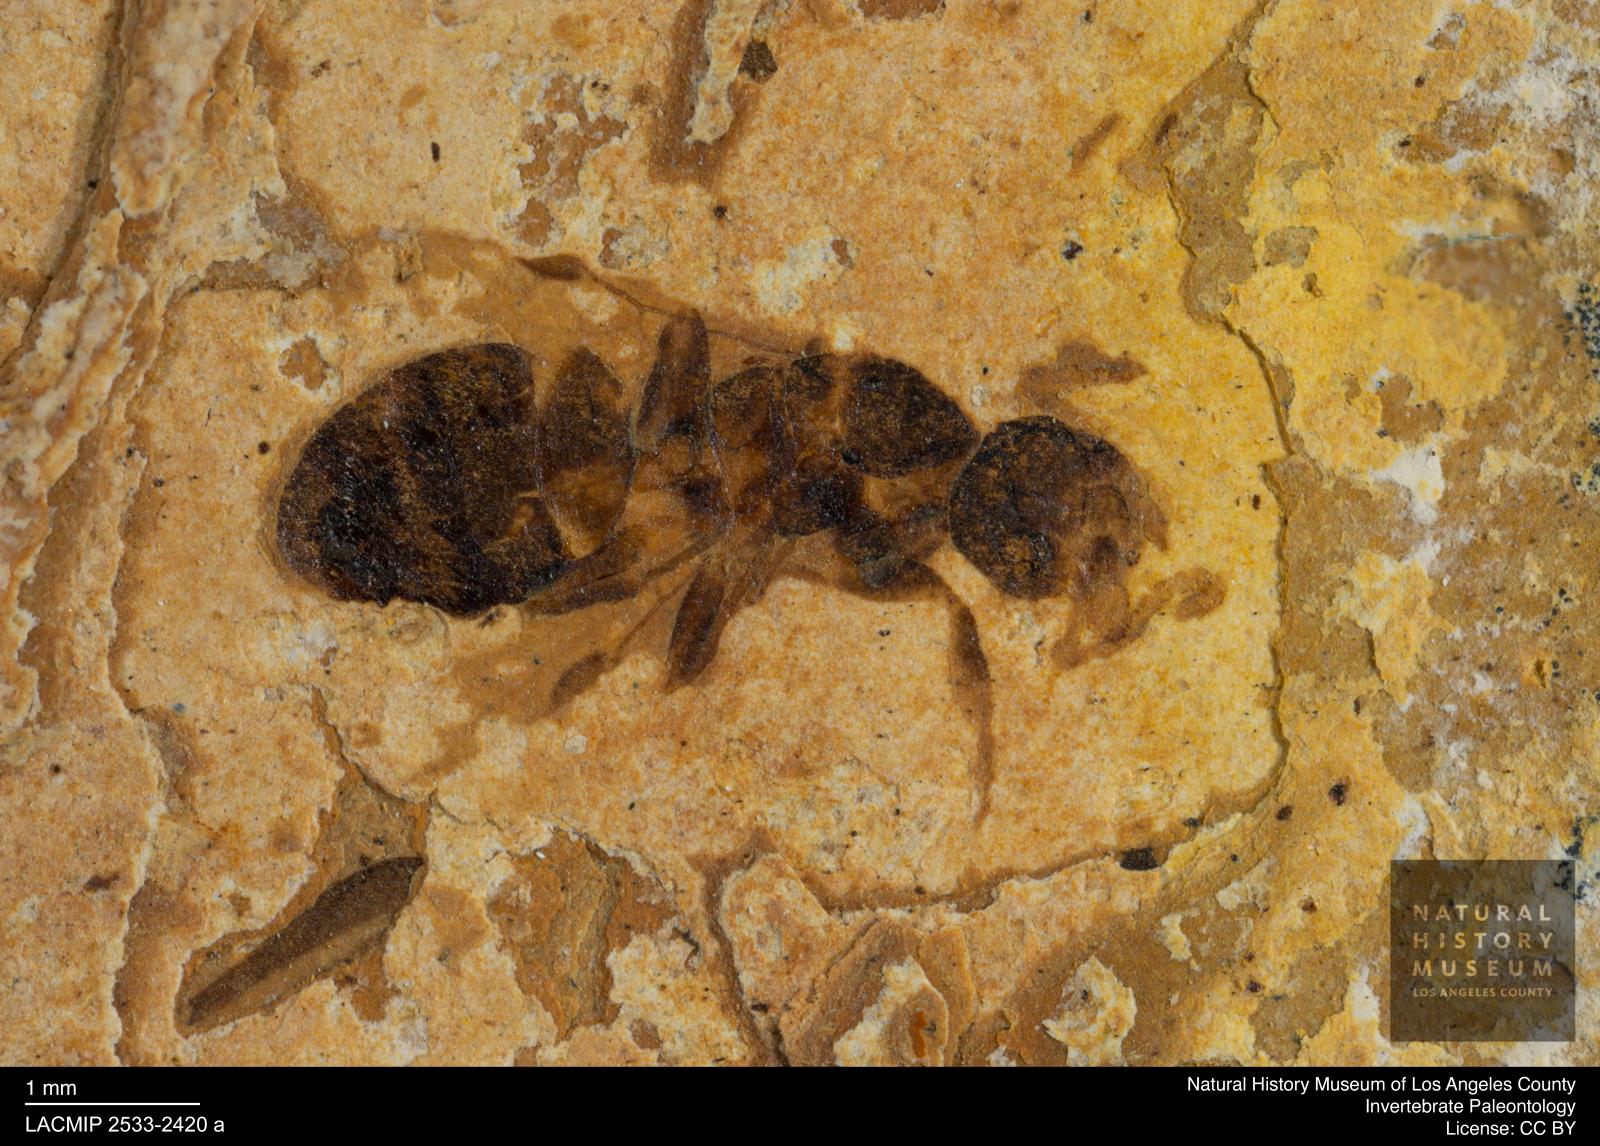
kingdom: Animalia
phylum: Arthropoda
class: Insecta
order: Hymenoptera
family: Formicidae
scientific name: Formicidae
